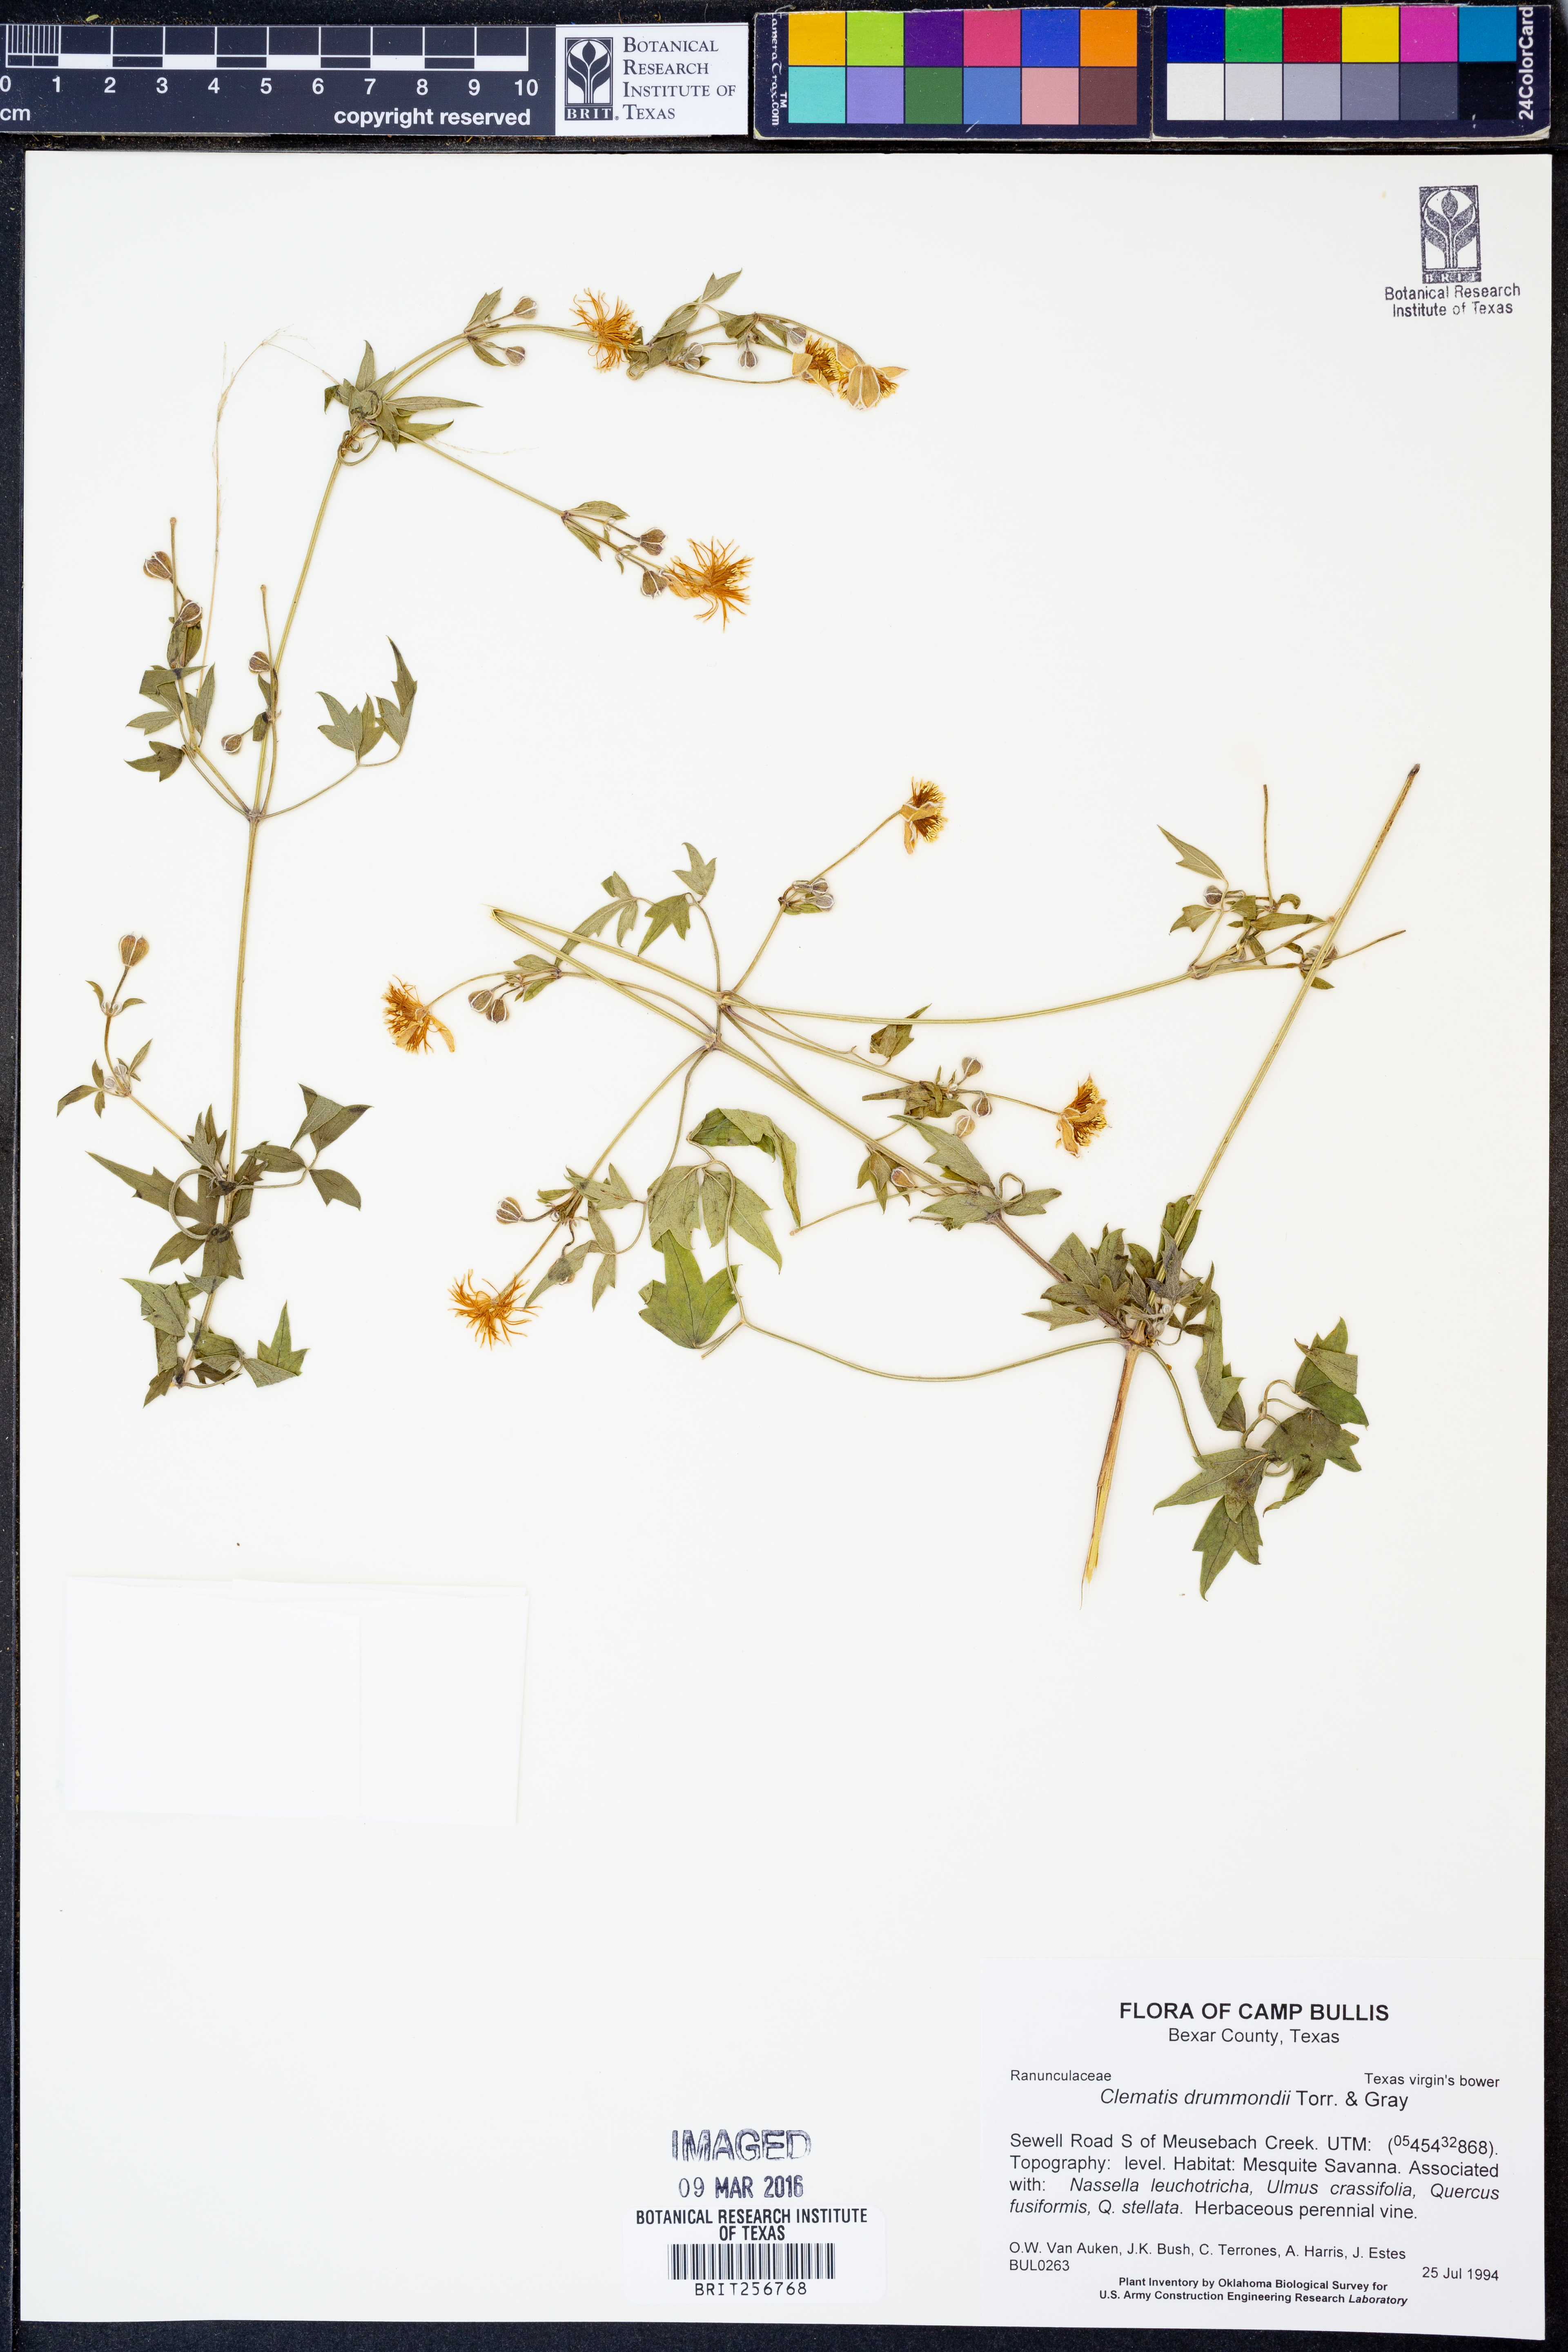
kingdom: Plantae
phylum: Tracheophyta
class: Magnoliopsida
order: Ranunculales
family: Ranunculaceae
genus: Clematis
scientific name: Clematis drummondii
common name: Texas virgin's bower
